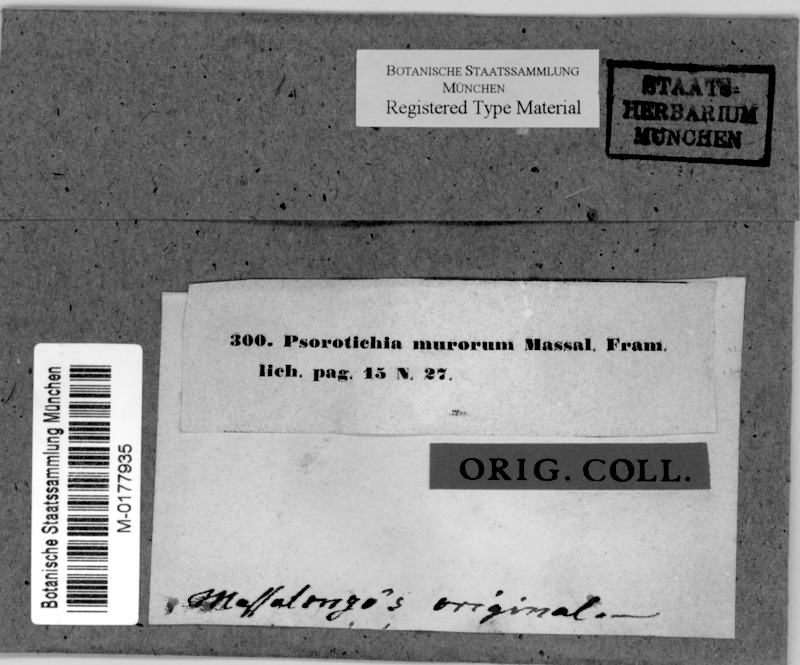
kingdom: Fungi
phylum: Ascomycota
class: Lichinomycetes
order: Lichinales
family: Lichinaceae
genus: Psorotichia
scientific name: Psorotichia murorum
